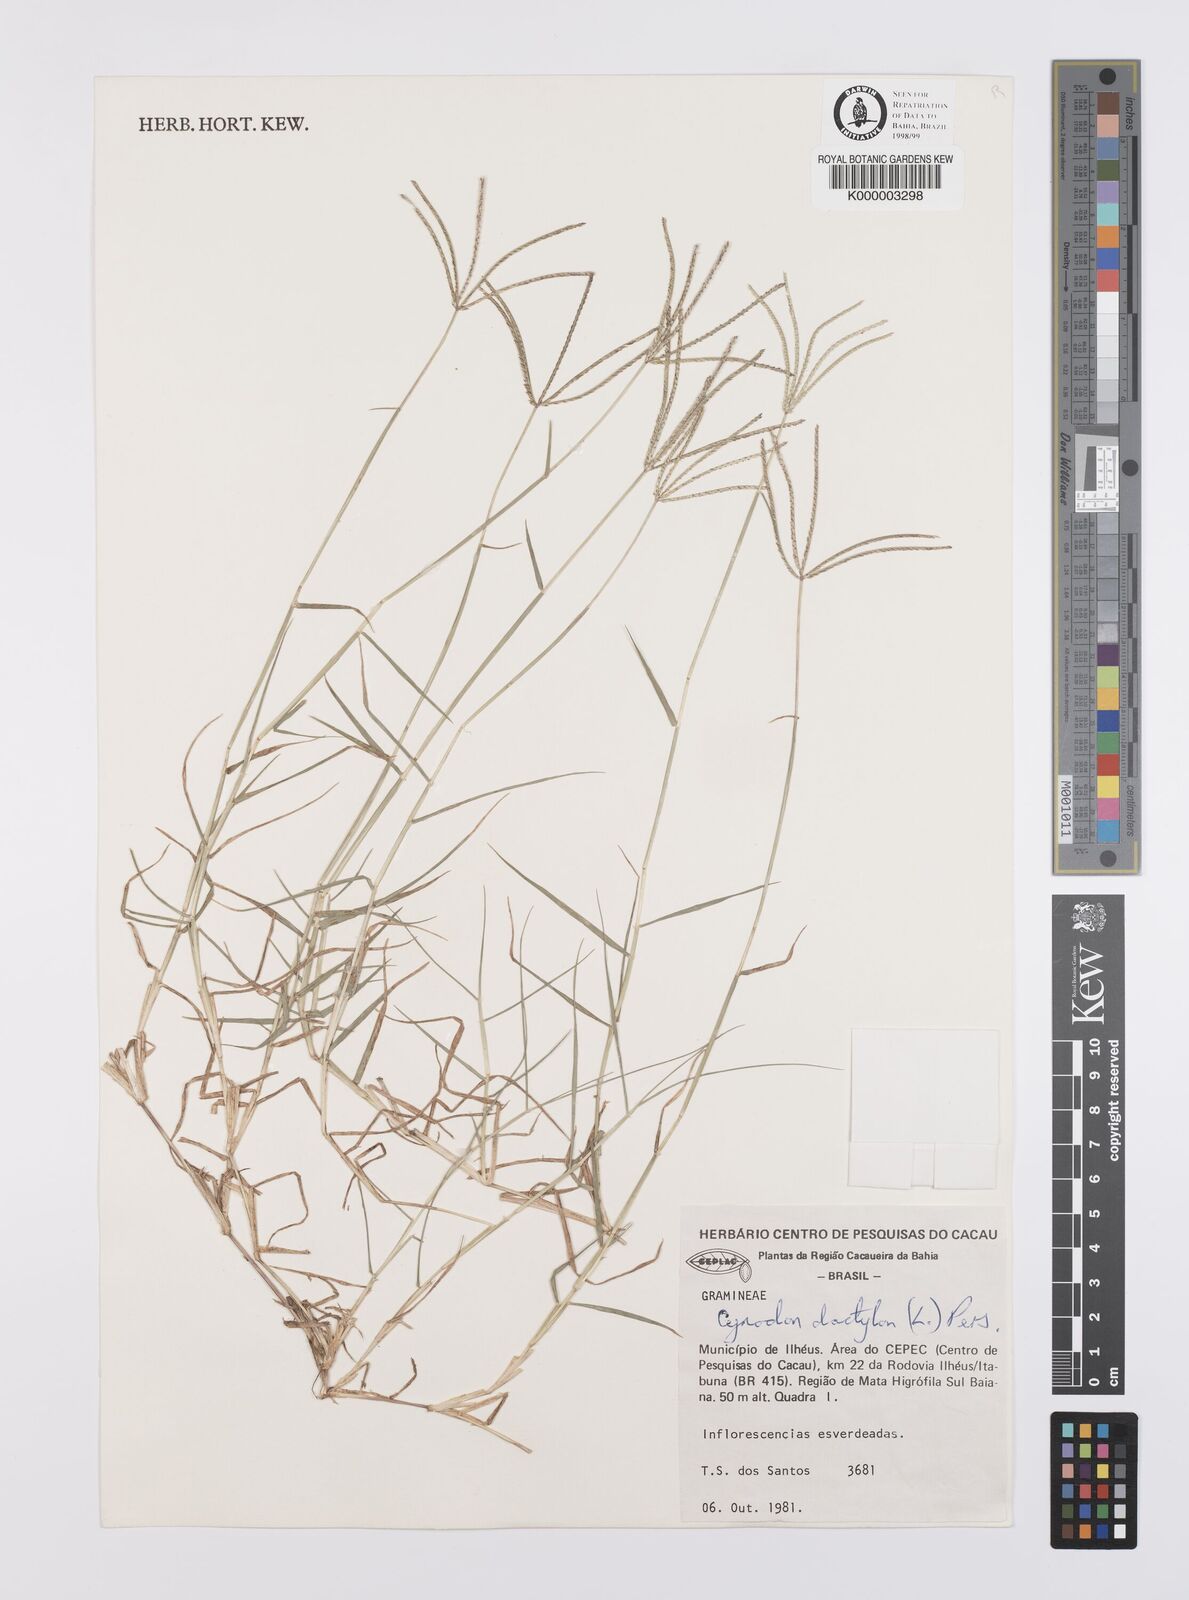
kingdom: Plantae
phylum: Tracheophyta
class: Liliopsida
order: Poales
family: Poaceae
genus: Cynodon
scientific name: Cynodon dactylon
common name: Bermuda grass
